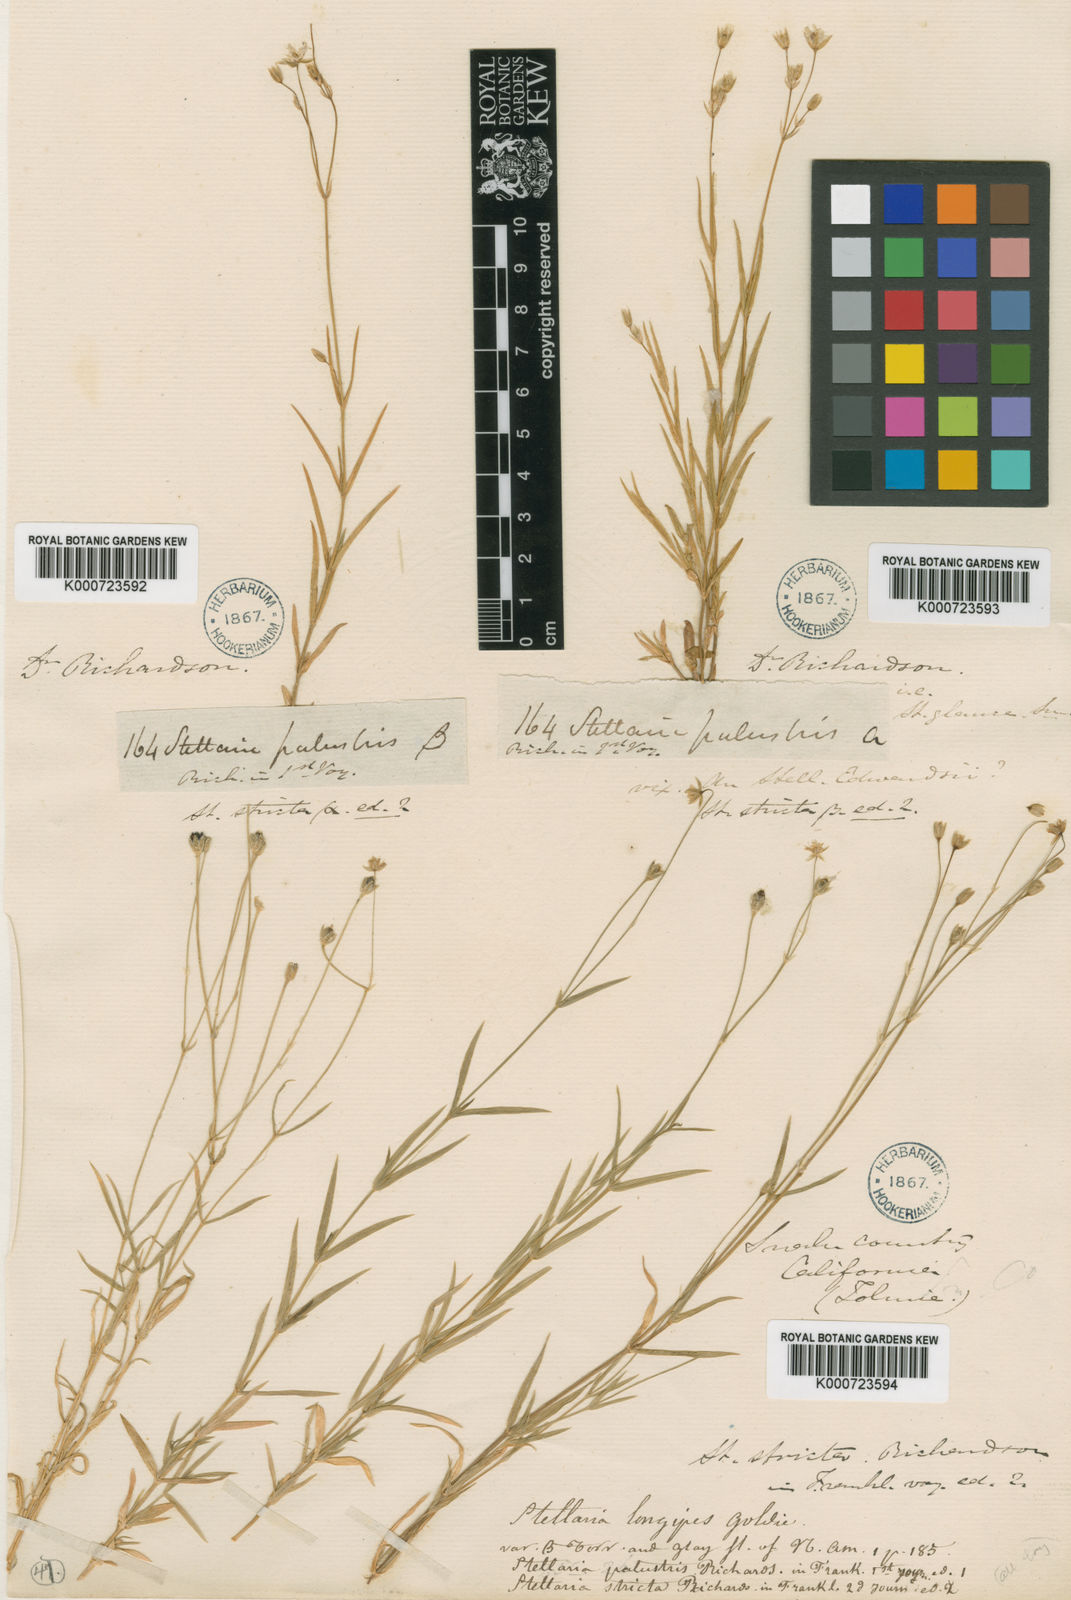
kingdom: Plantae
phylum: Tracheophyta
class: Magnoliopsida
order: Caryophyllales
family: Caryophyllaceae
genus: Stellaria
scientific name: Stellaria longipes
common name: Goldie's starwort
